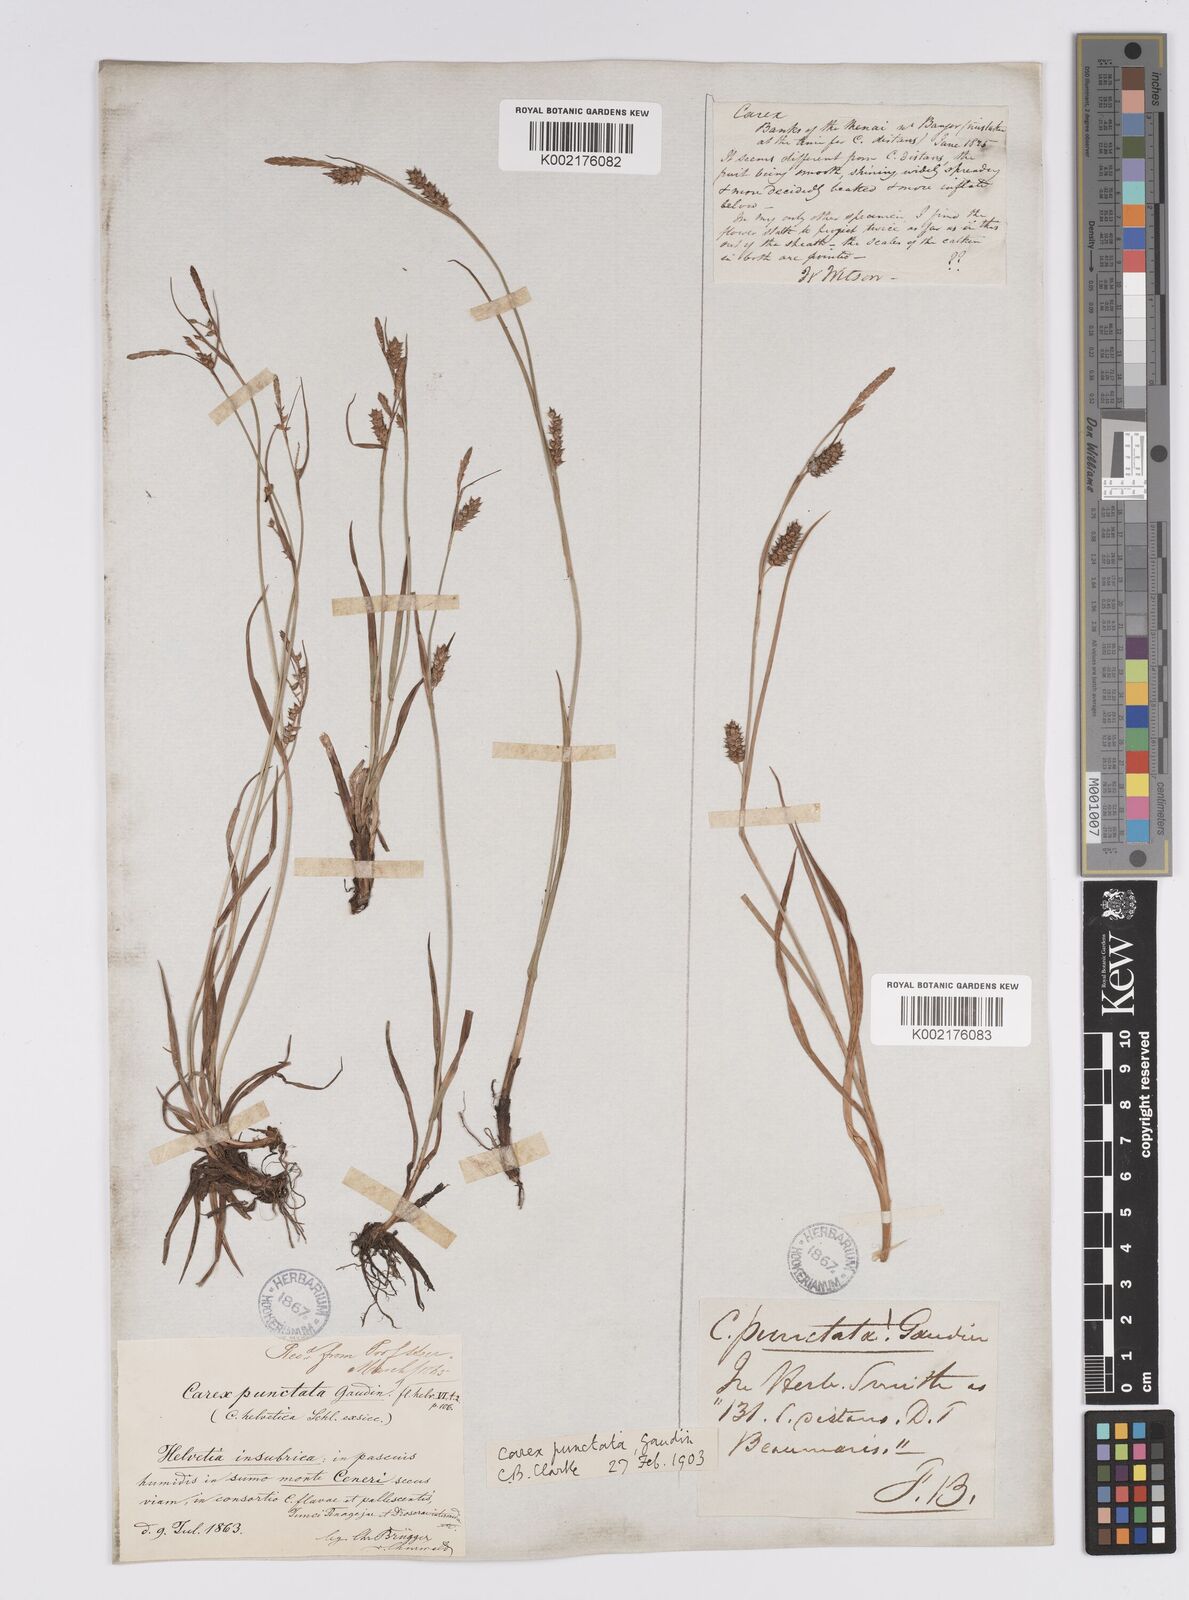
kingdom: Plantae
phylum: Tracheophyta
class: Liliopsida
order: Poales
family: Cyperaceae
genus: Carex
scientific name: Carex punctata
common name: Dotted sedge
